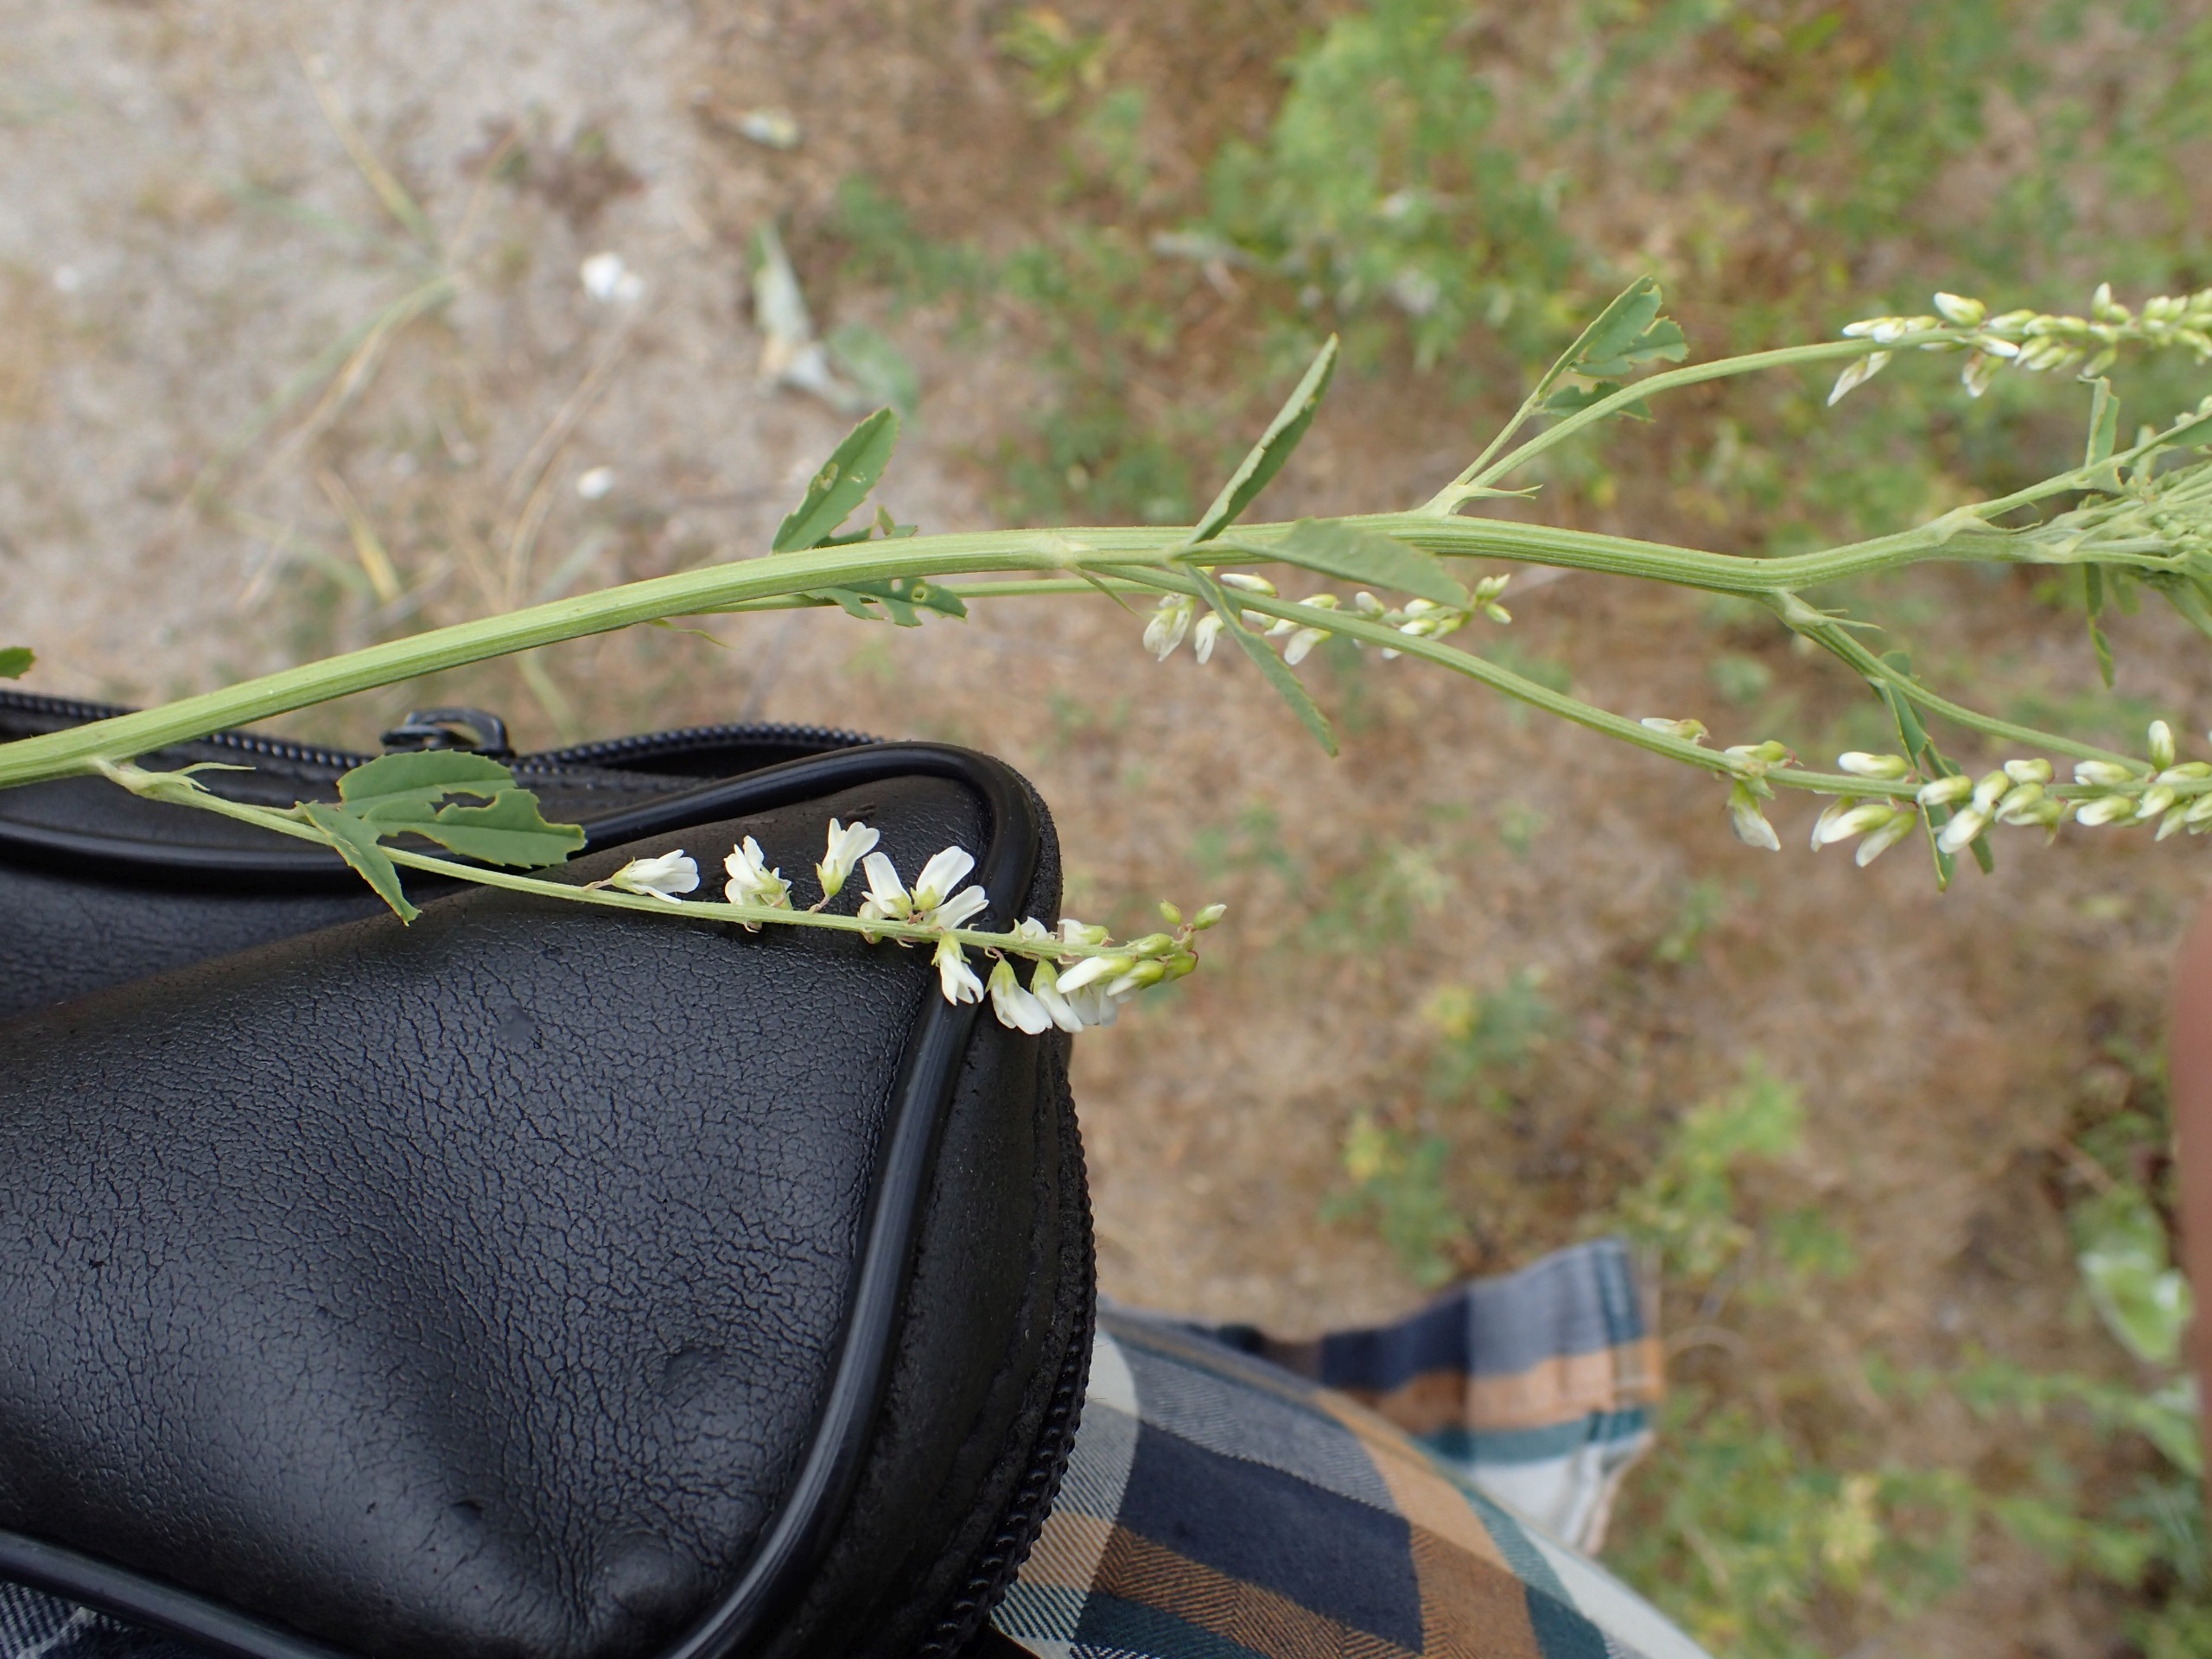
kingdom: Plantae
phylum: Tracheophyta
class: Magnoliopsida
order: Fabales
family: Fabaceae
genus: Melilotus
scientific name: Melilotus albus
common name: Hvid stenkløver
